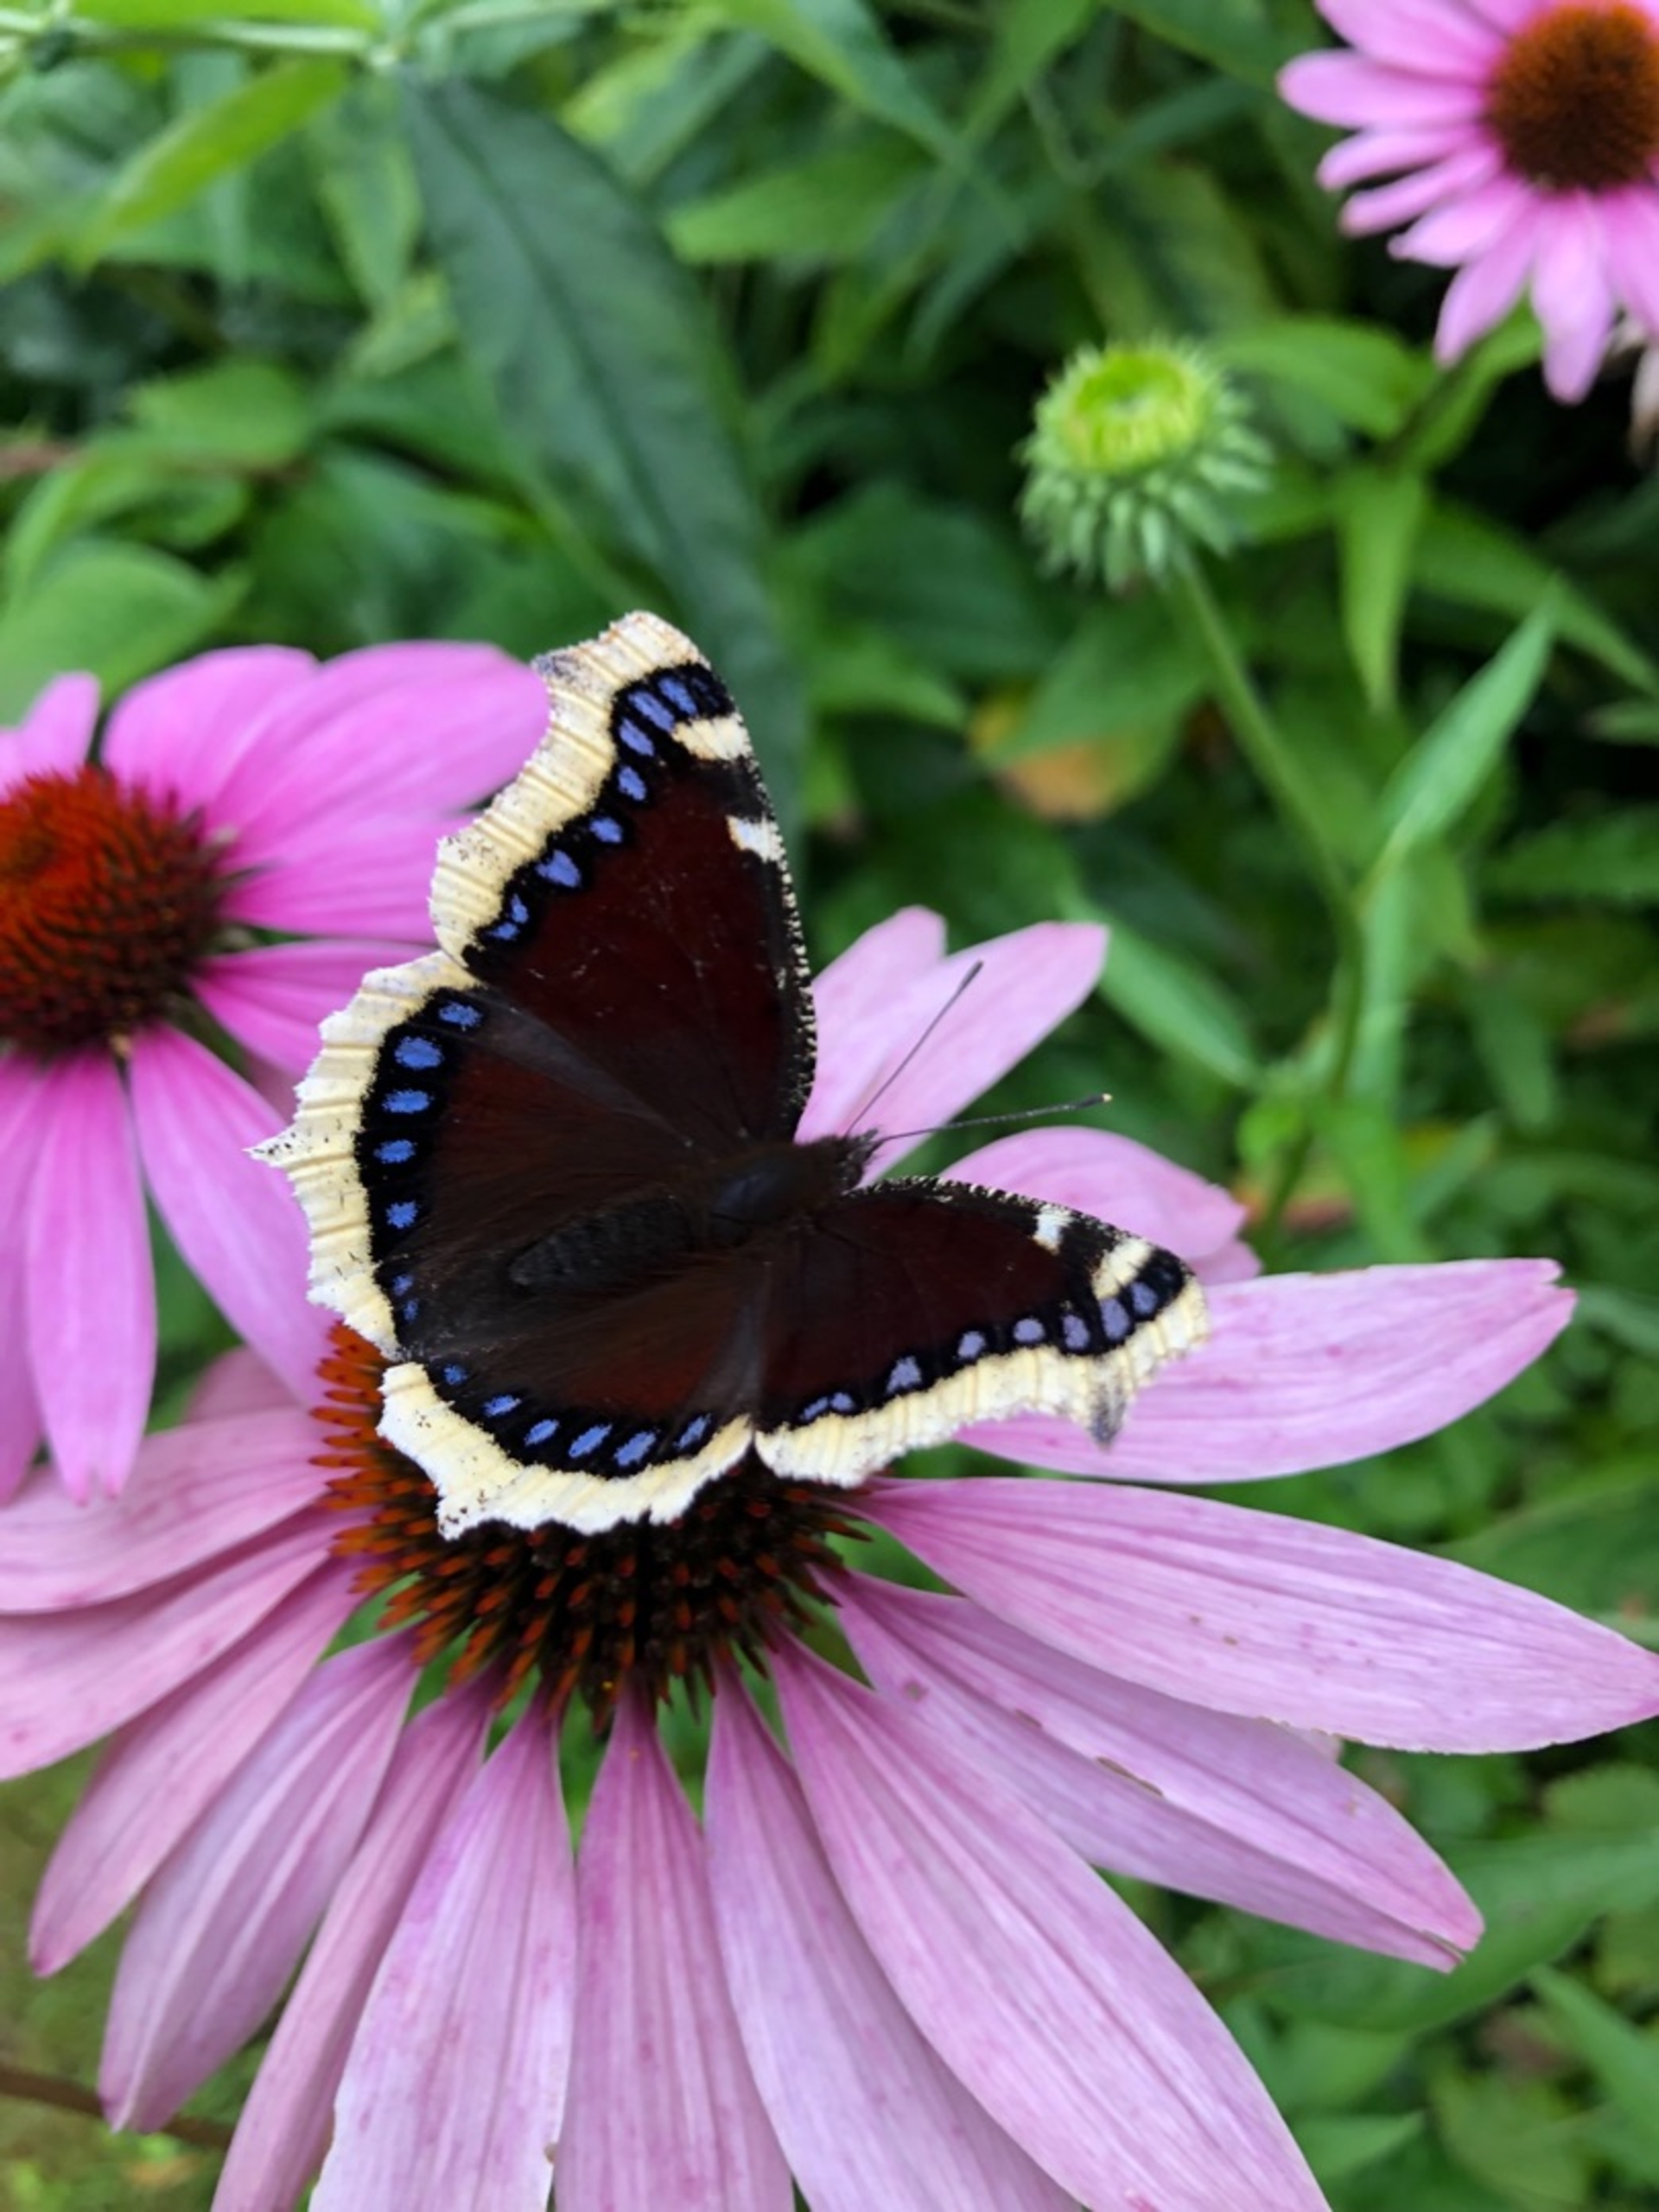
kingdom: Animalia
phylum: Arthropoda
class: Insecta
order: Lepidoptera
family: Nymphalidae
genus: Nymphalis
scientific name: Nymphalis antiopa
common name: Sørgekåbe
